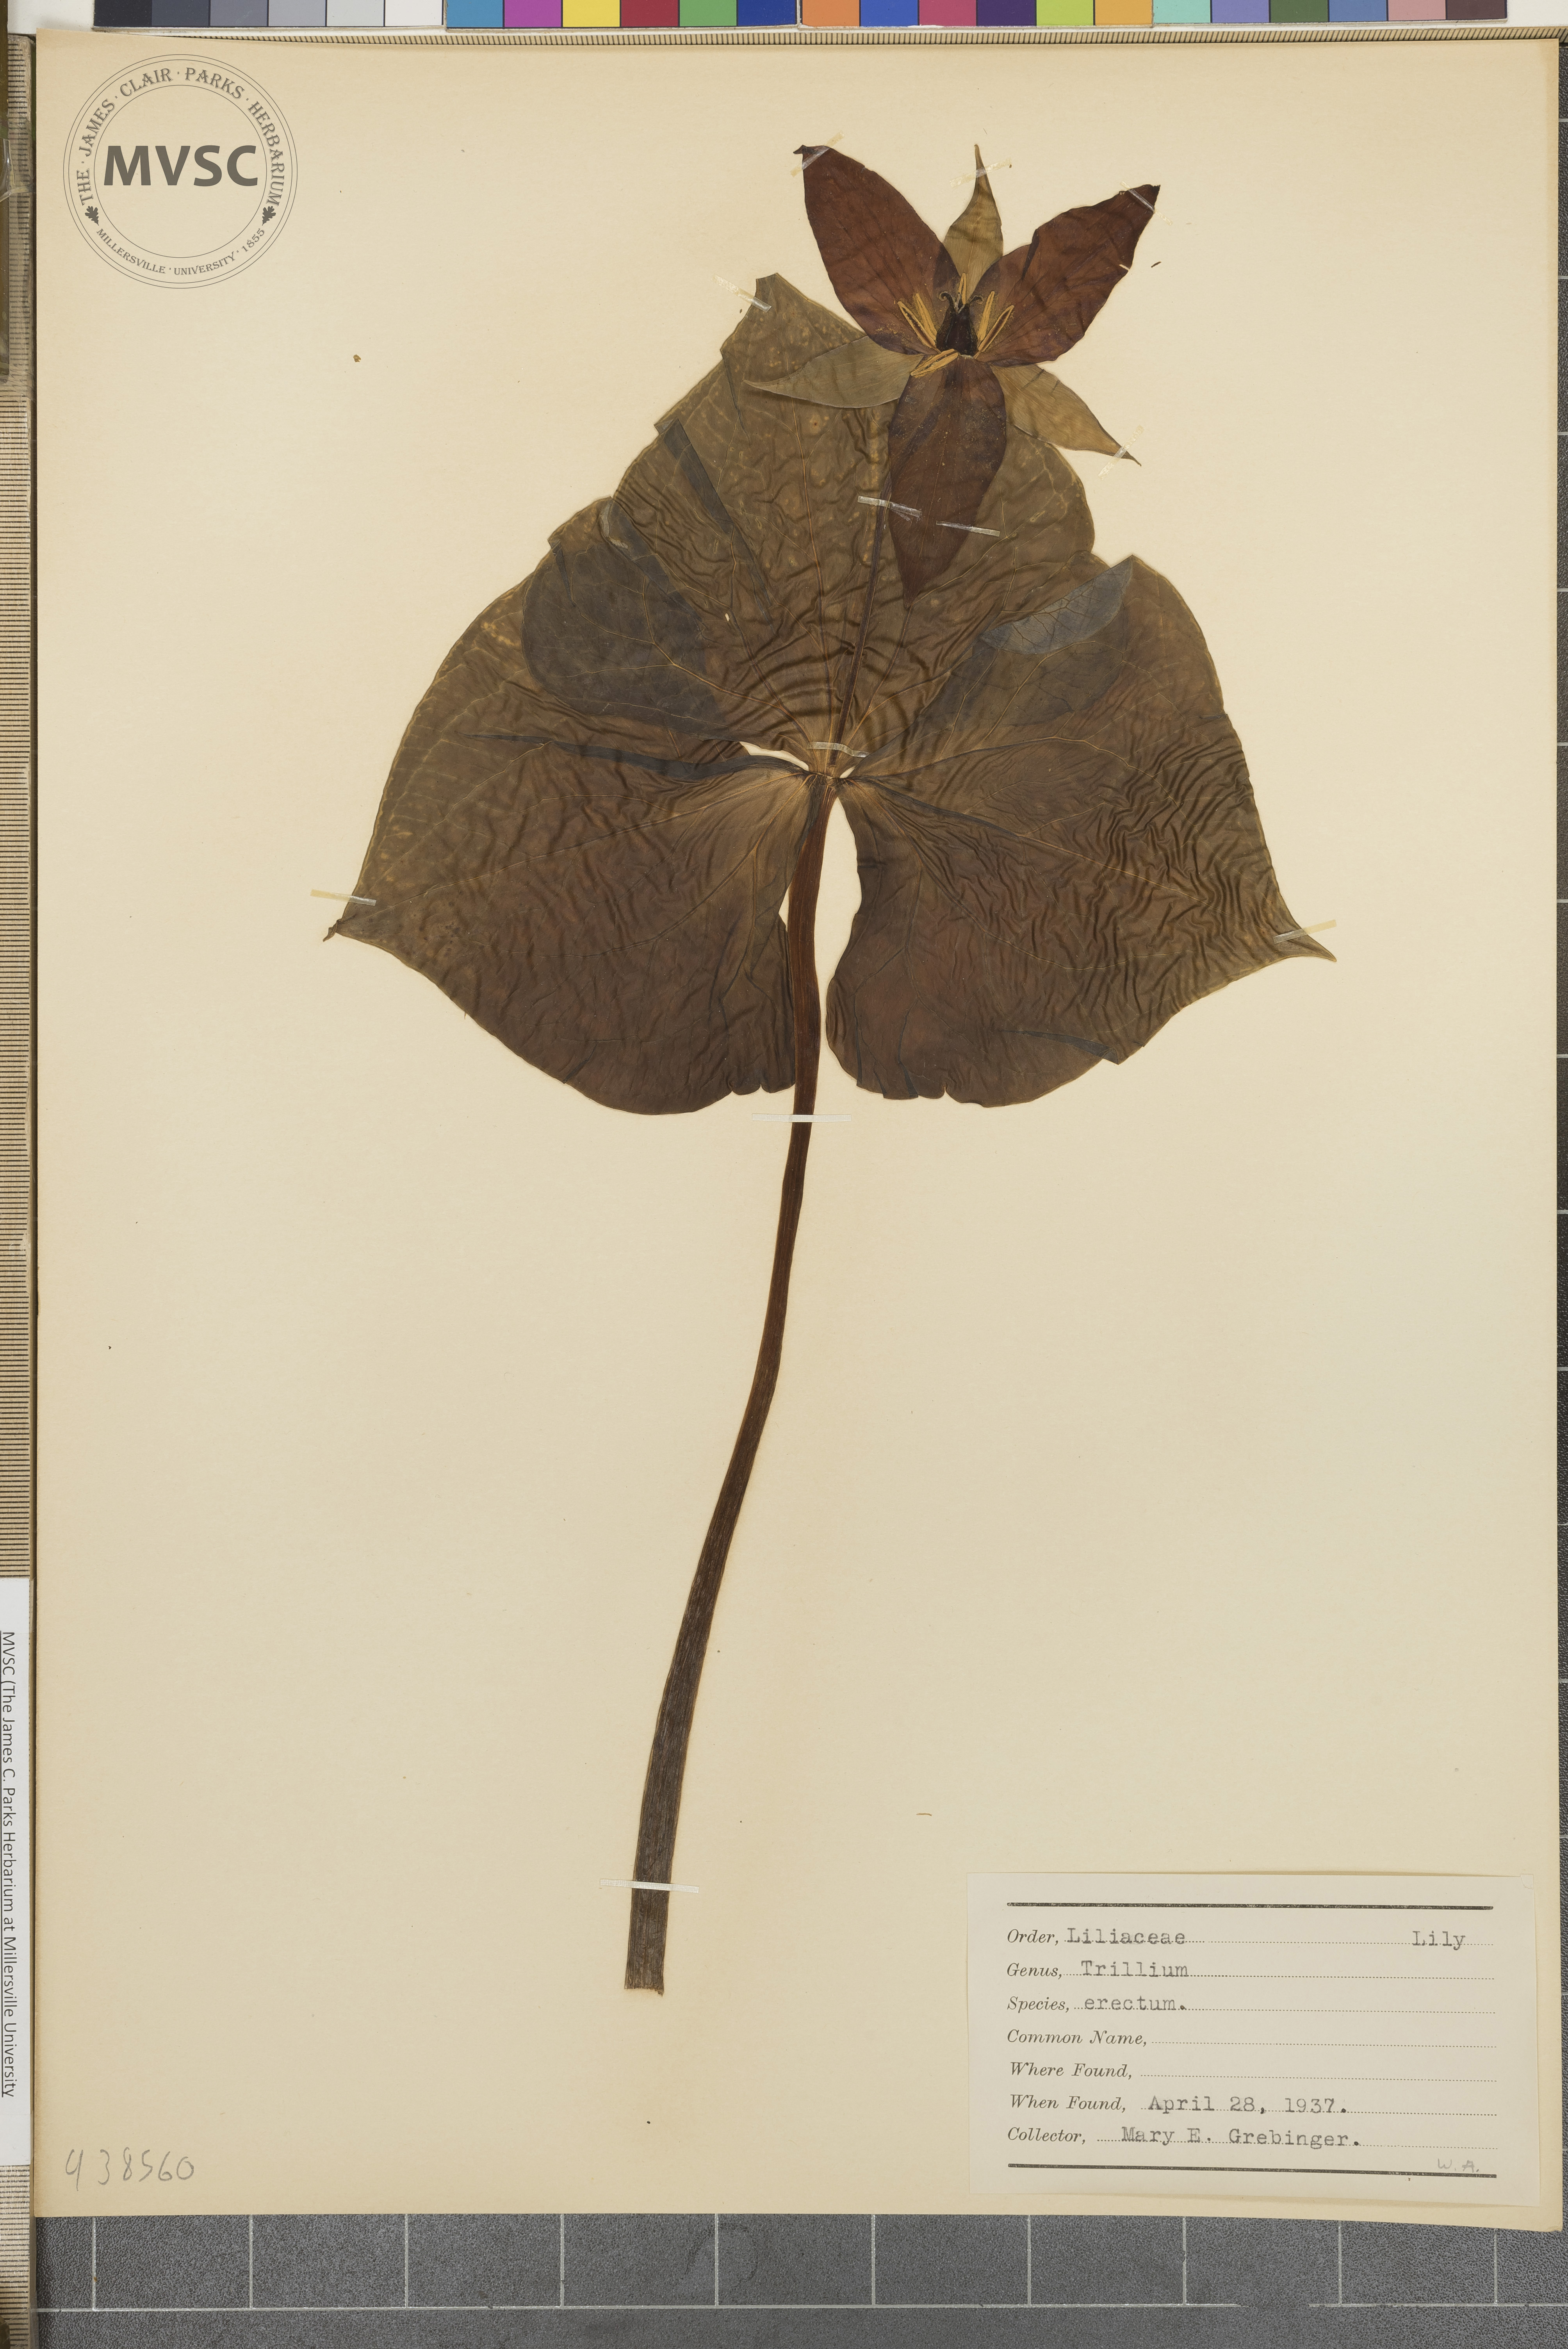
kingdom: Plantae
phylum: Tracheophyta
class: Liliopsida
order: Liliales
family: Melanthiaceae
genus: Trillium
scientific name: Trillium erectum
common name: Purple trillium
